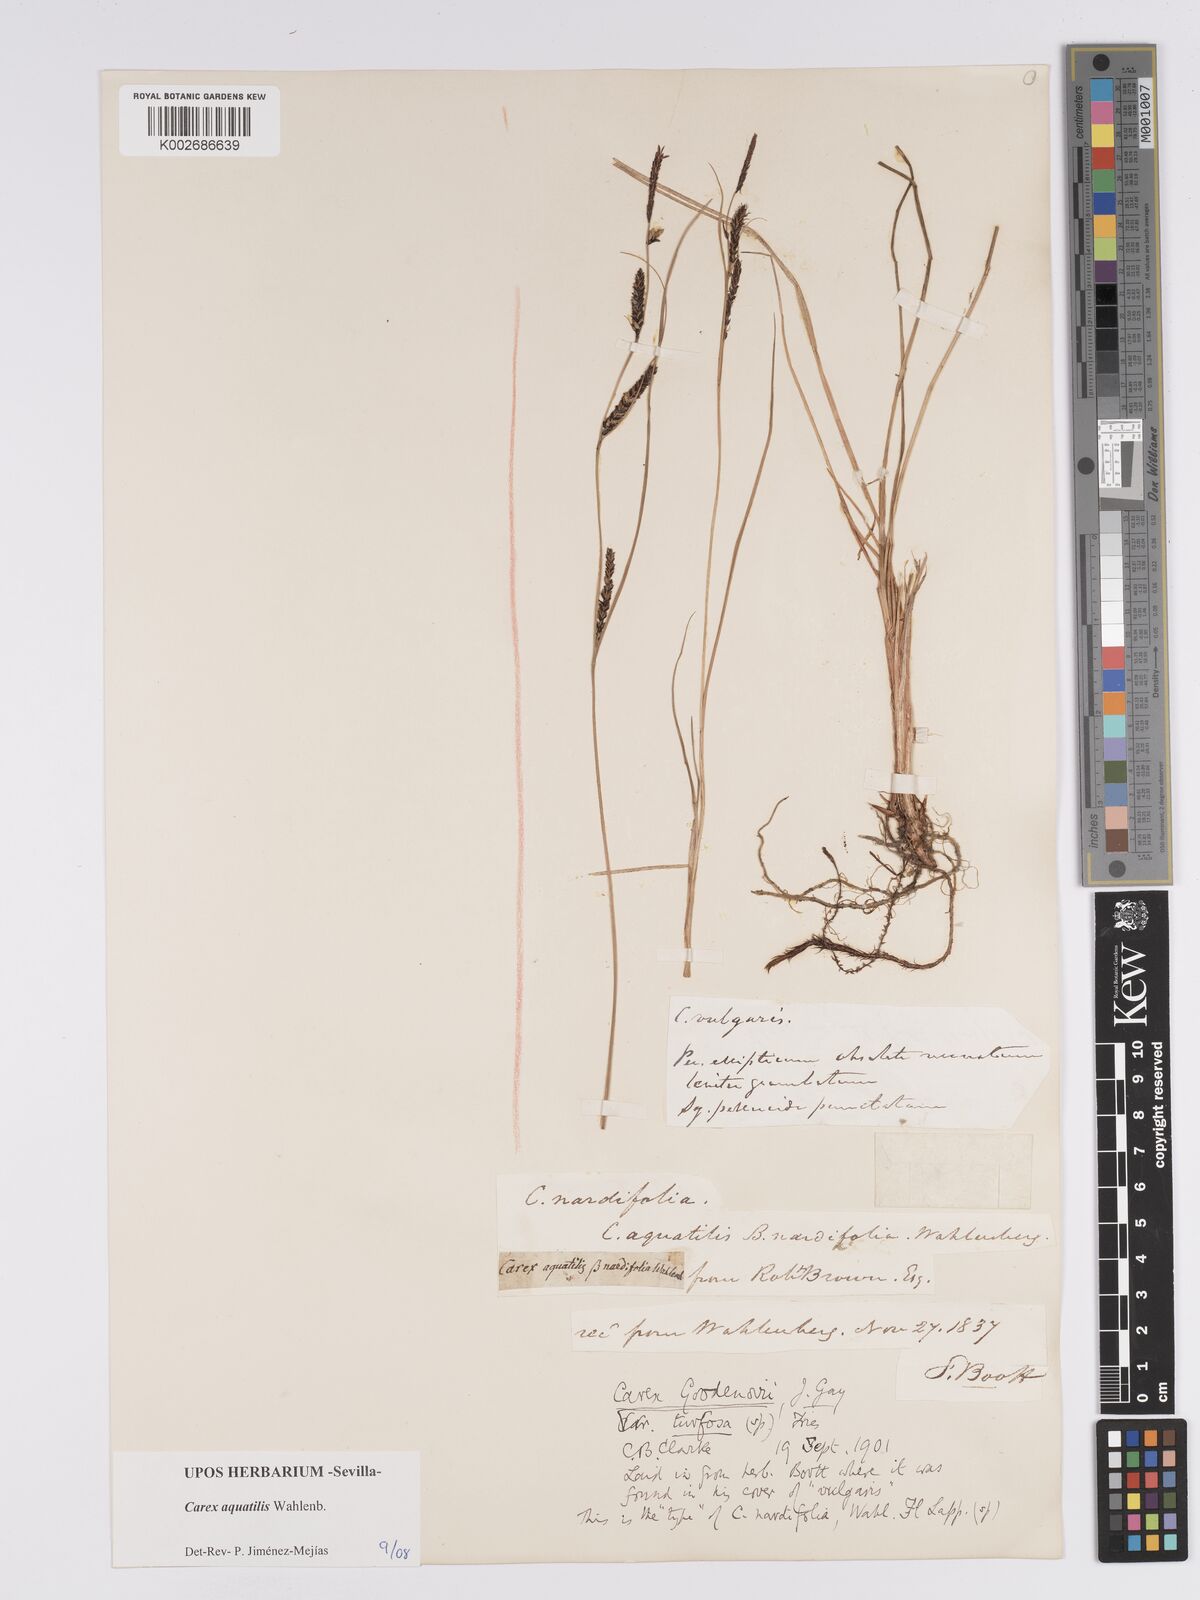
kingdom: Plantae
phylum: Tracheophyta
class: Liliopsida
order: Poales
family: Cyperaceae
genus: Carex
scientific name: Carex aquatilis
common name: Water sedge
